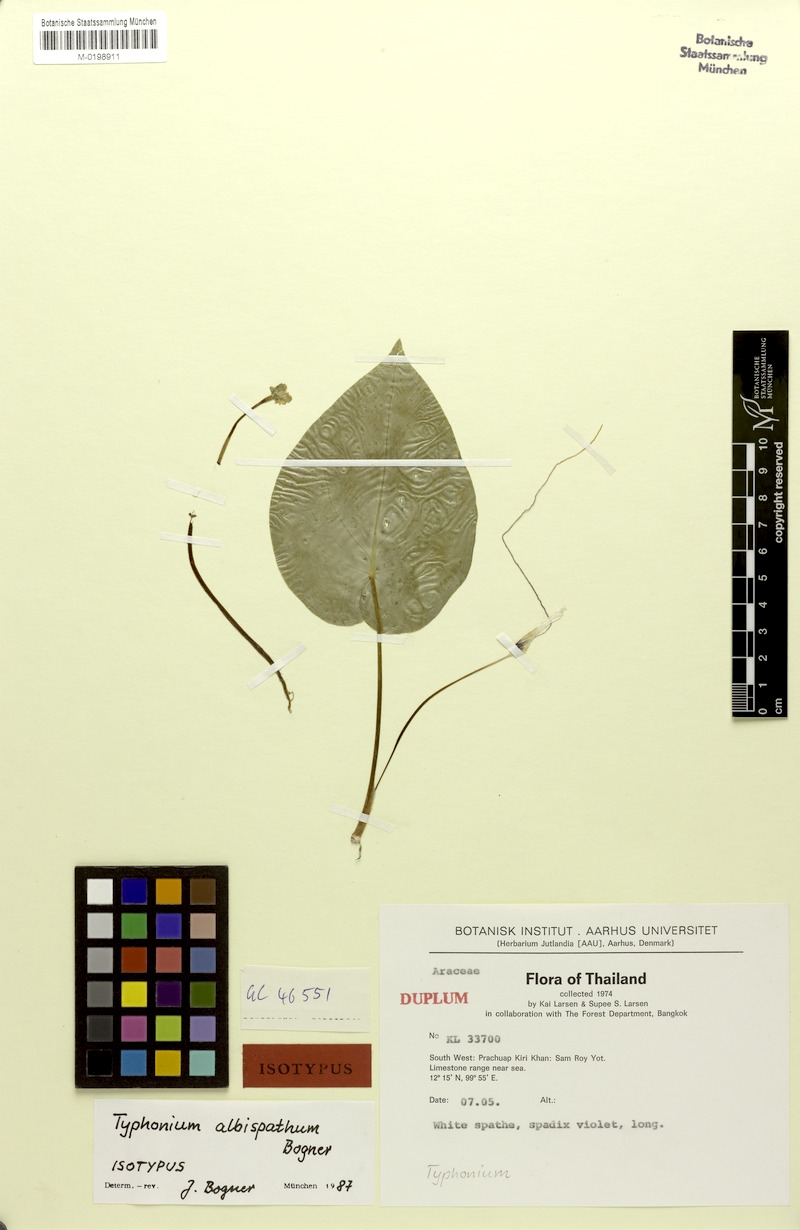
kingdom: Plantae
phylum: Tracheophyta
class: Liliopsida
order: Alismatales
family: Araceae
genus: Typhonium
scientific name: Typhonium albispathum
